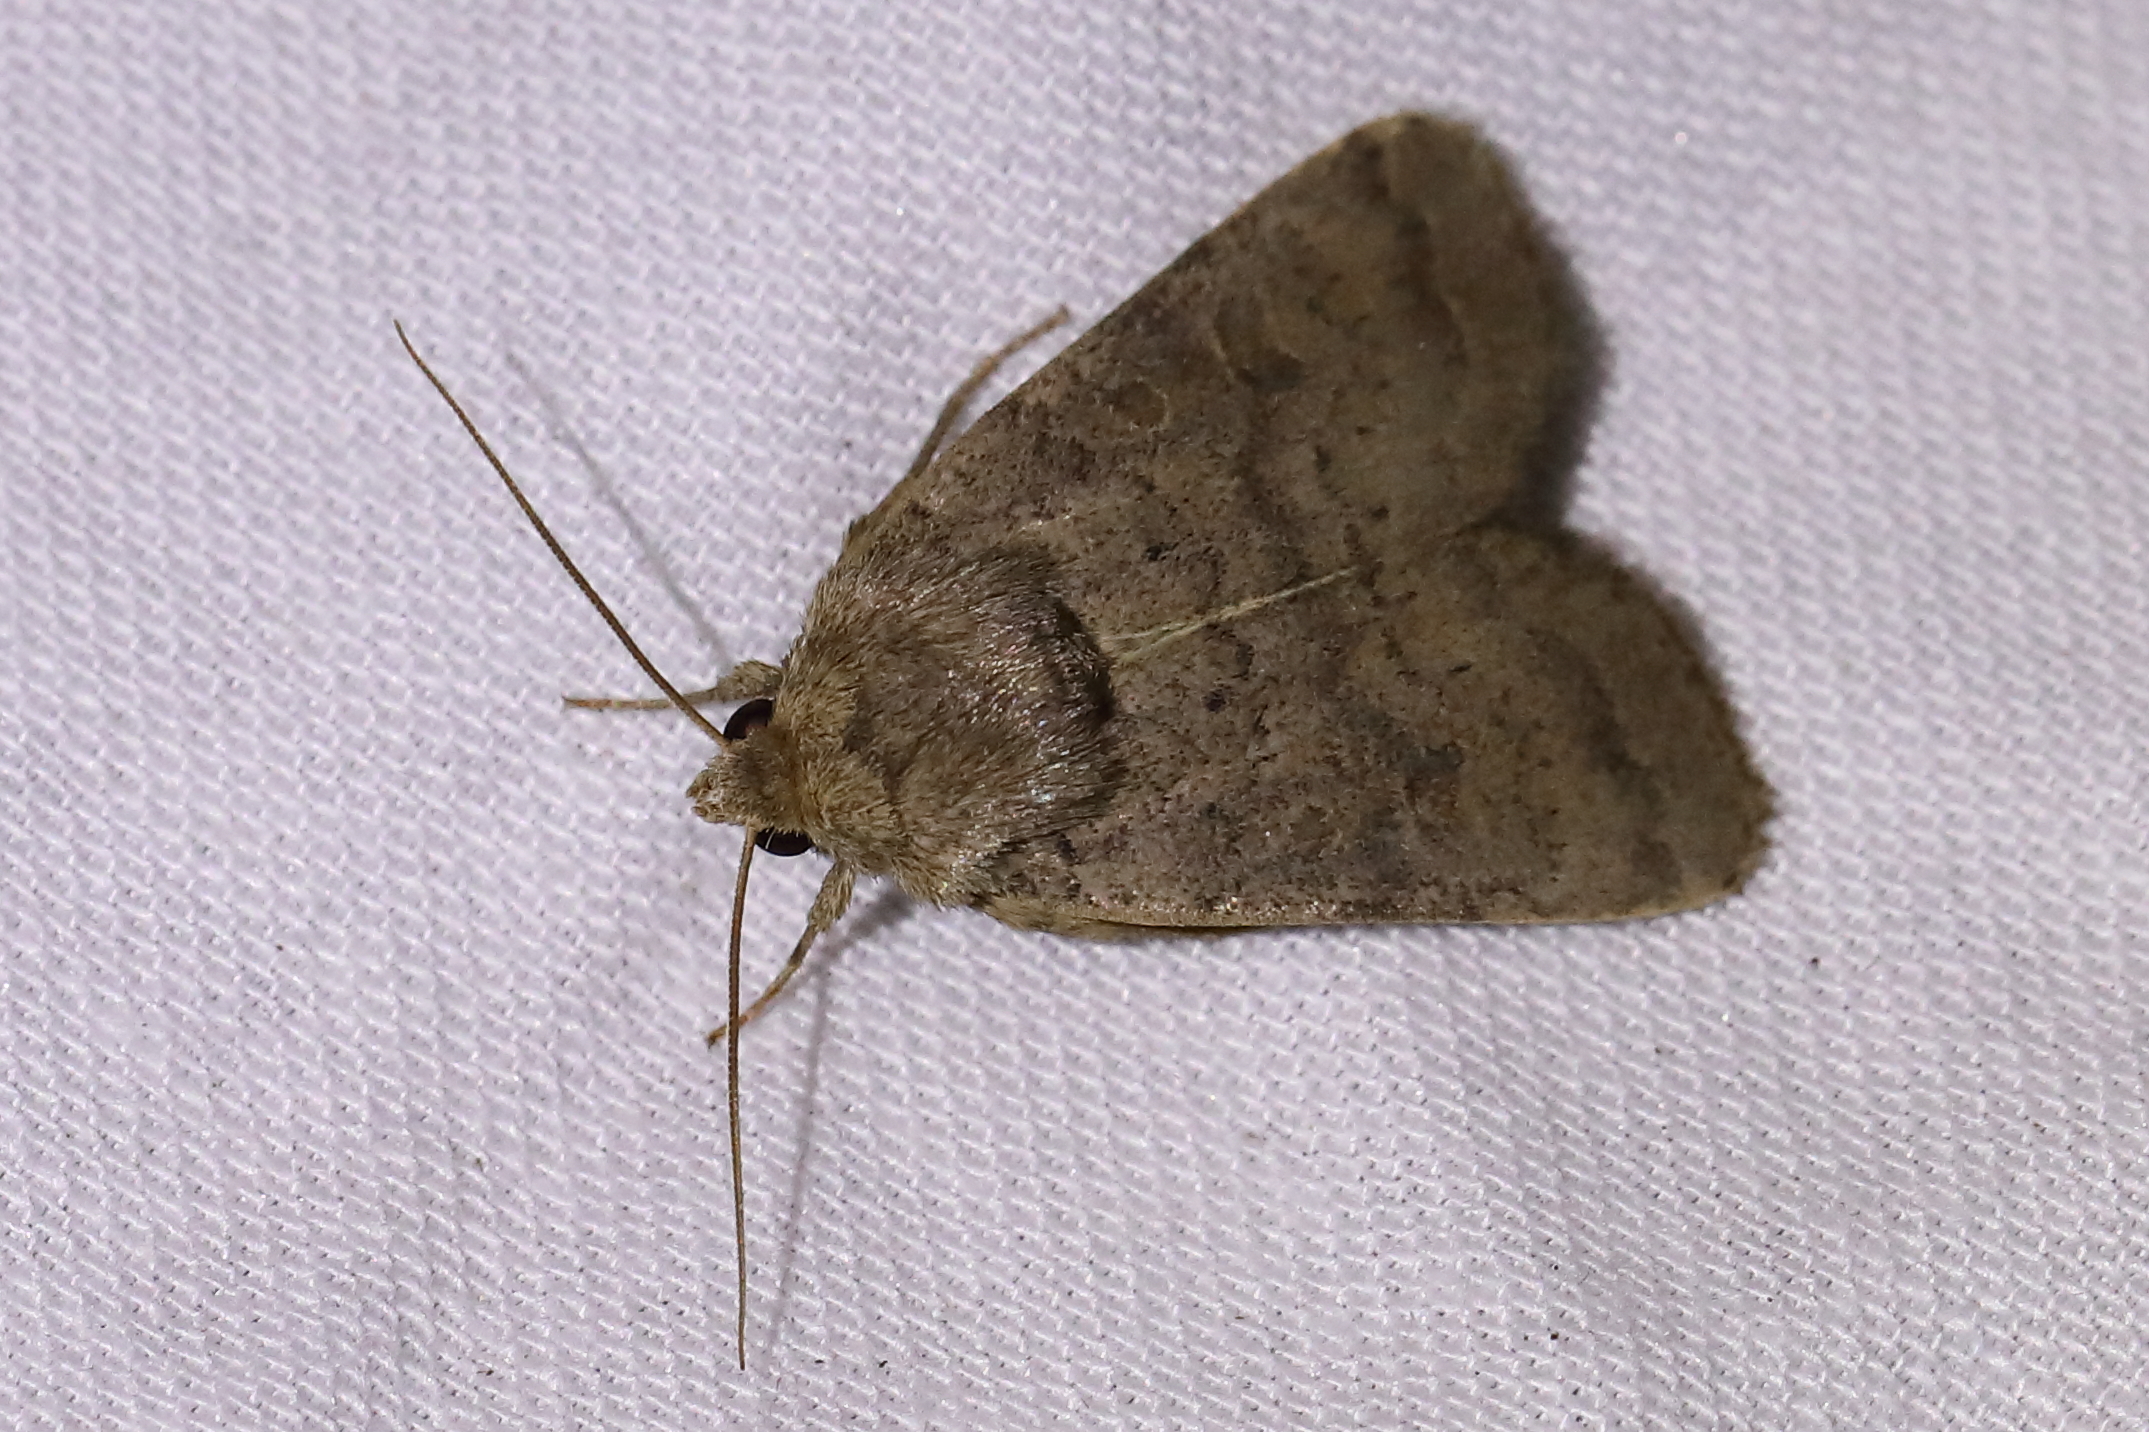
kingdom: Animalia
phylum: Arthropoda
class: Insecta
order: Lepidoptera
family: Noctuidae
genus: Hoplodrina
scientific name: Hoplodrina blanda
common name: Rustic
